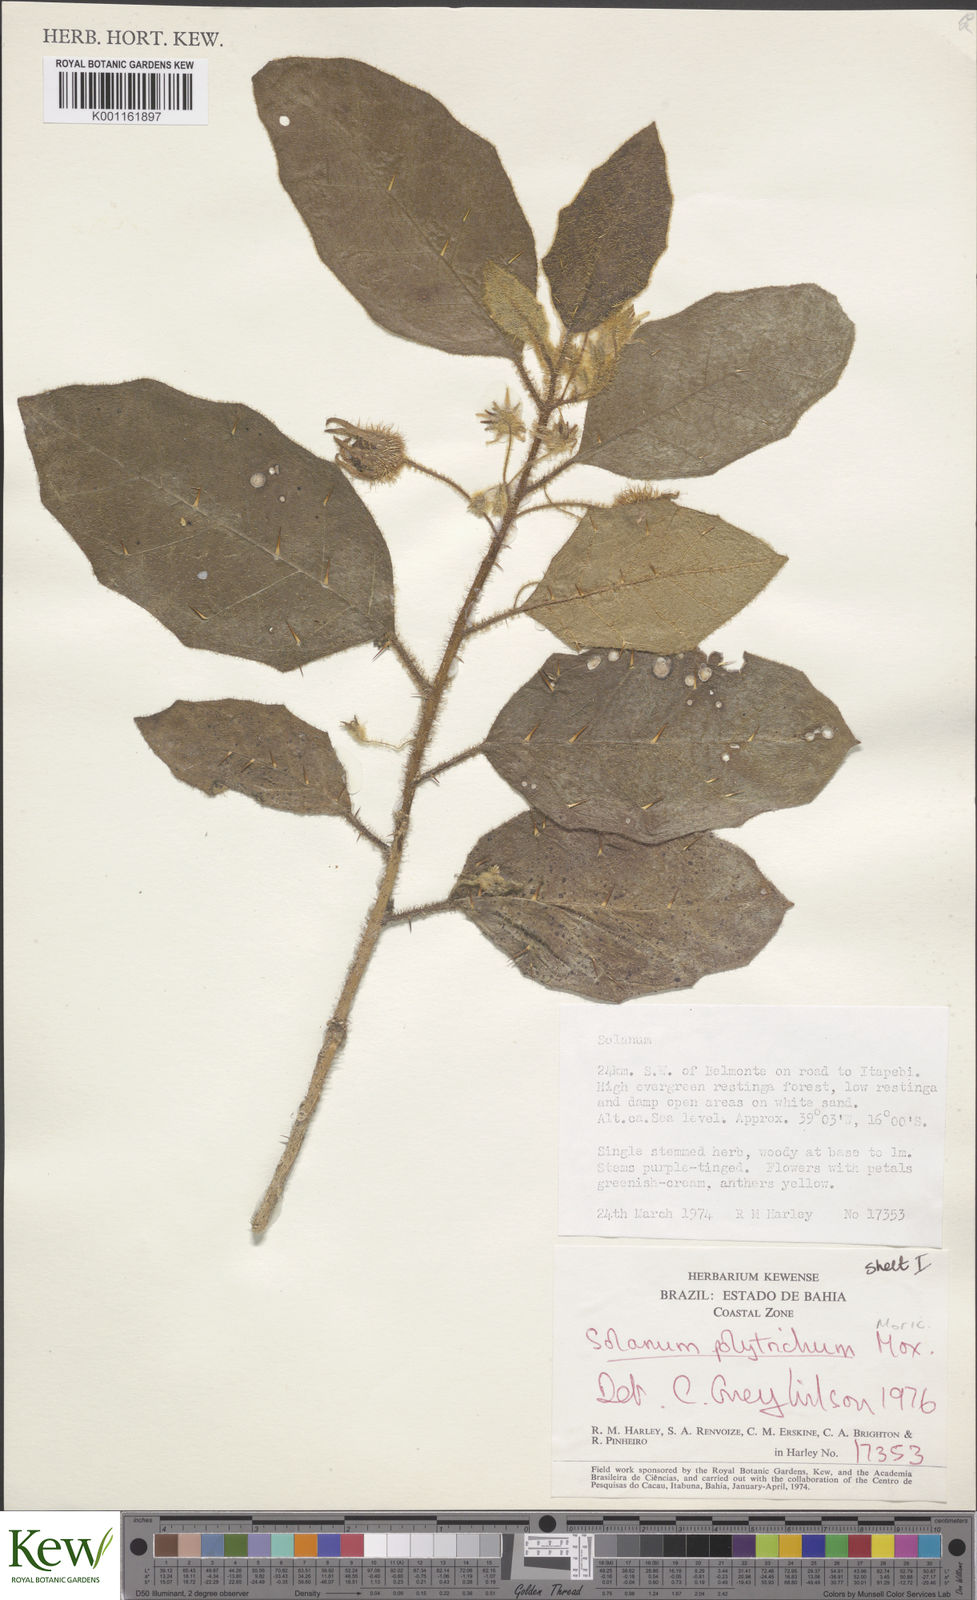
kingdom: Plantae
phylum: Tracheophyta
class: Magnoliopsida
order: Solanales
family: Solanaceae
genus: Solanum
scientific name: Solanum polytrichum
